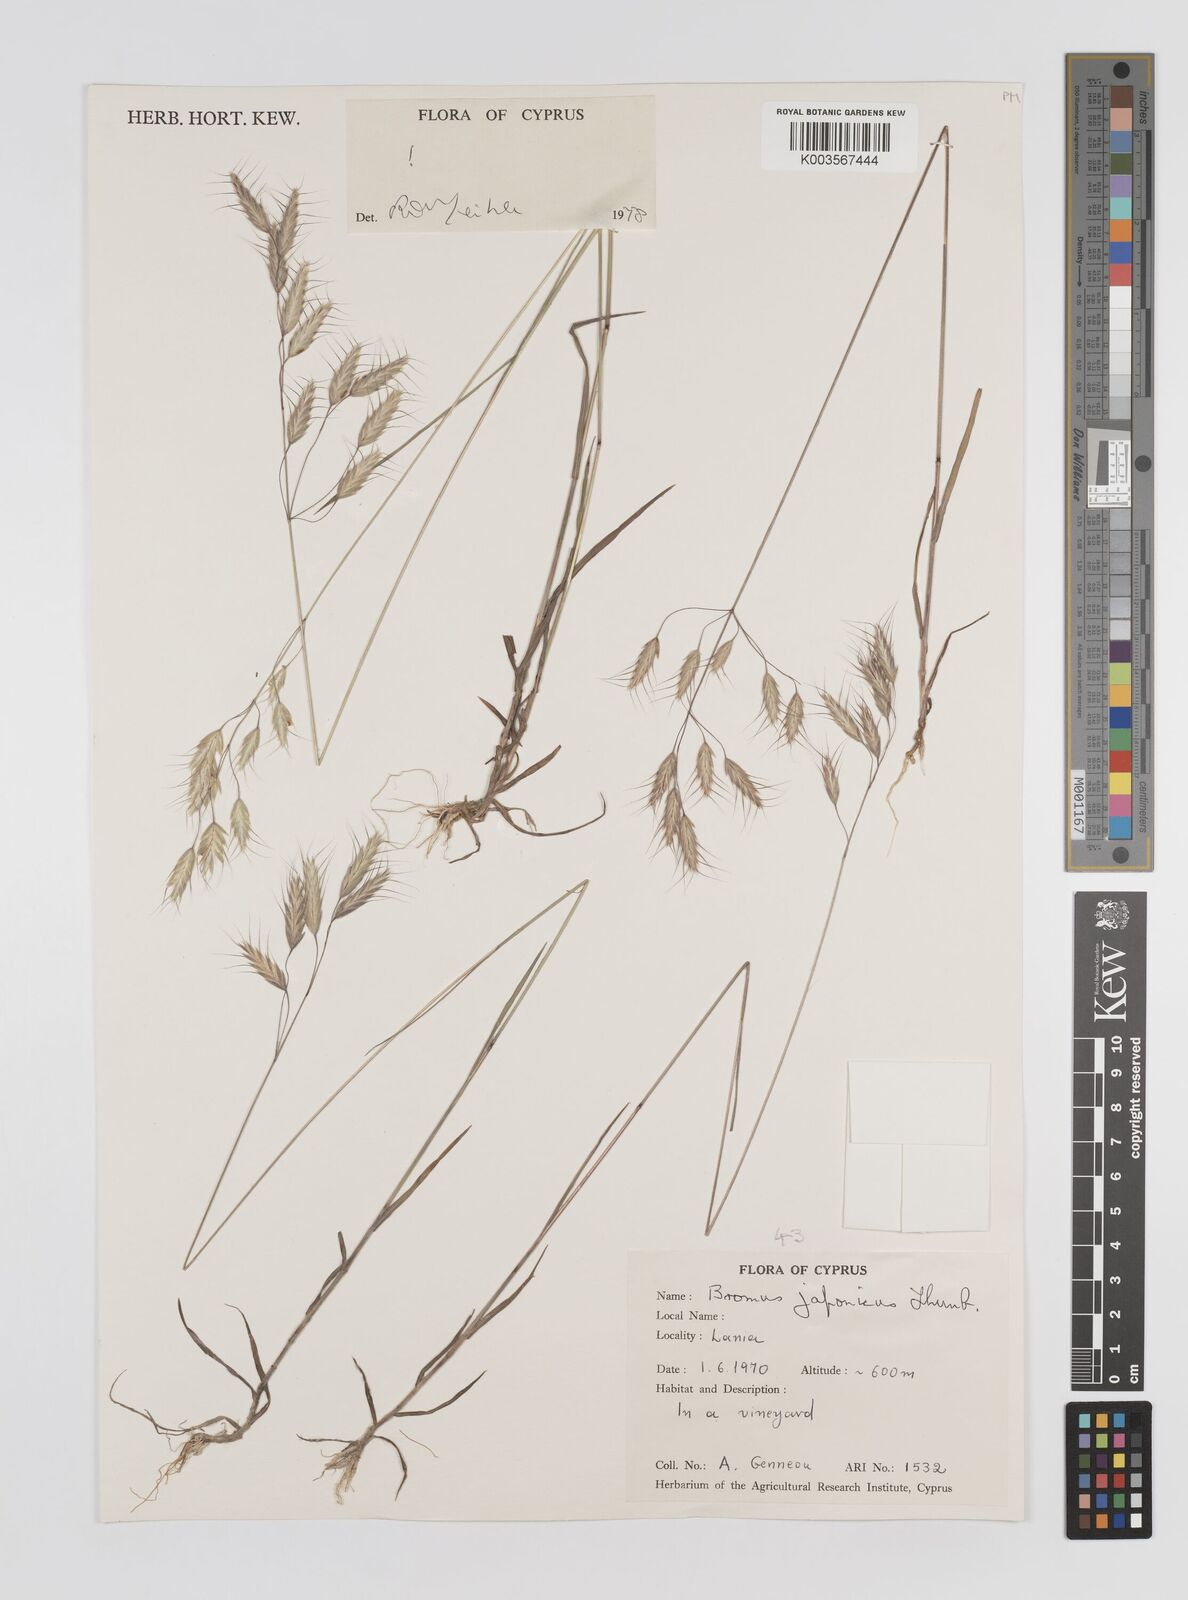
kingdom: Plantae
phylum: Tracheophyta
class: Liliopsida
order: Poales
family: Poaceae
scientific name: Poaceae
